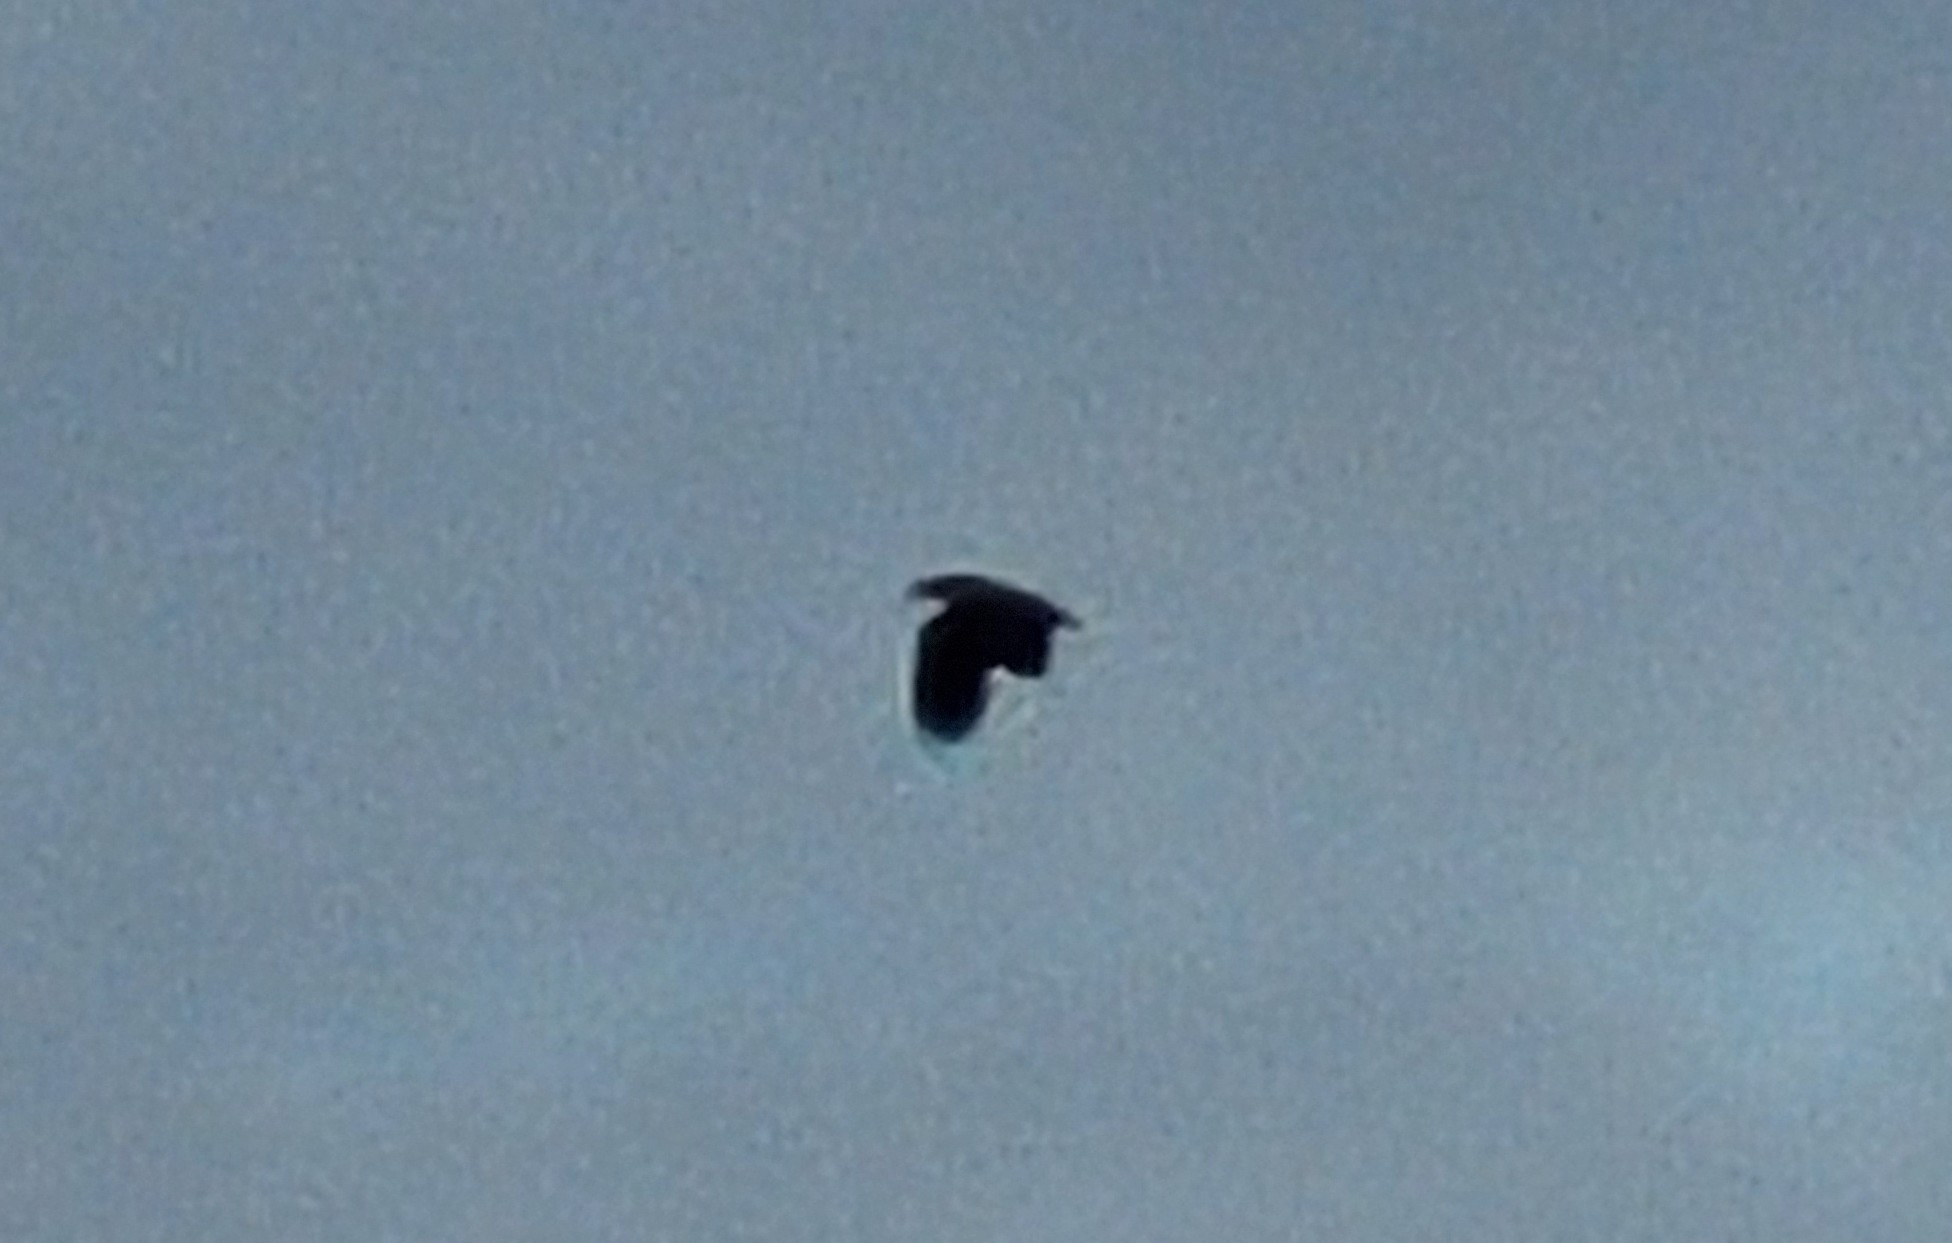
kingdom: Animalia
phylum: Chordata
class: Aves
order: Accipitriformes
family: Accipitridae
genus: Haliaeetus
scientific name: Haliaeetus albicilla
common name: Havørn
